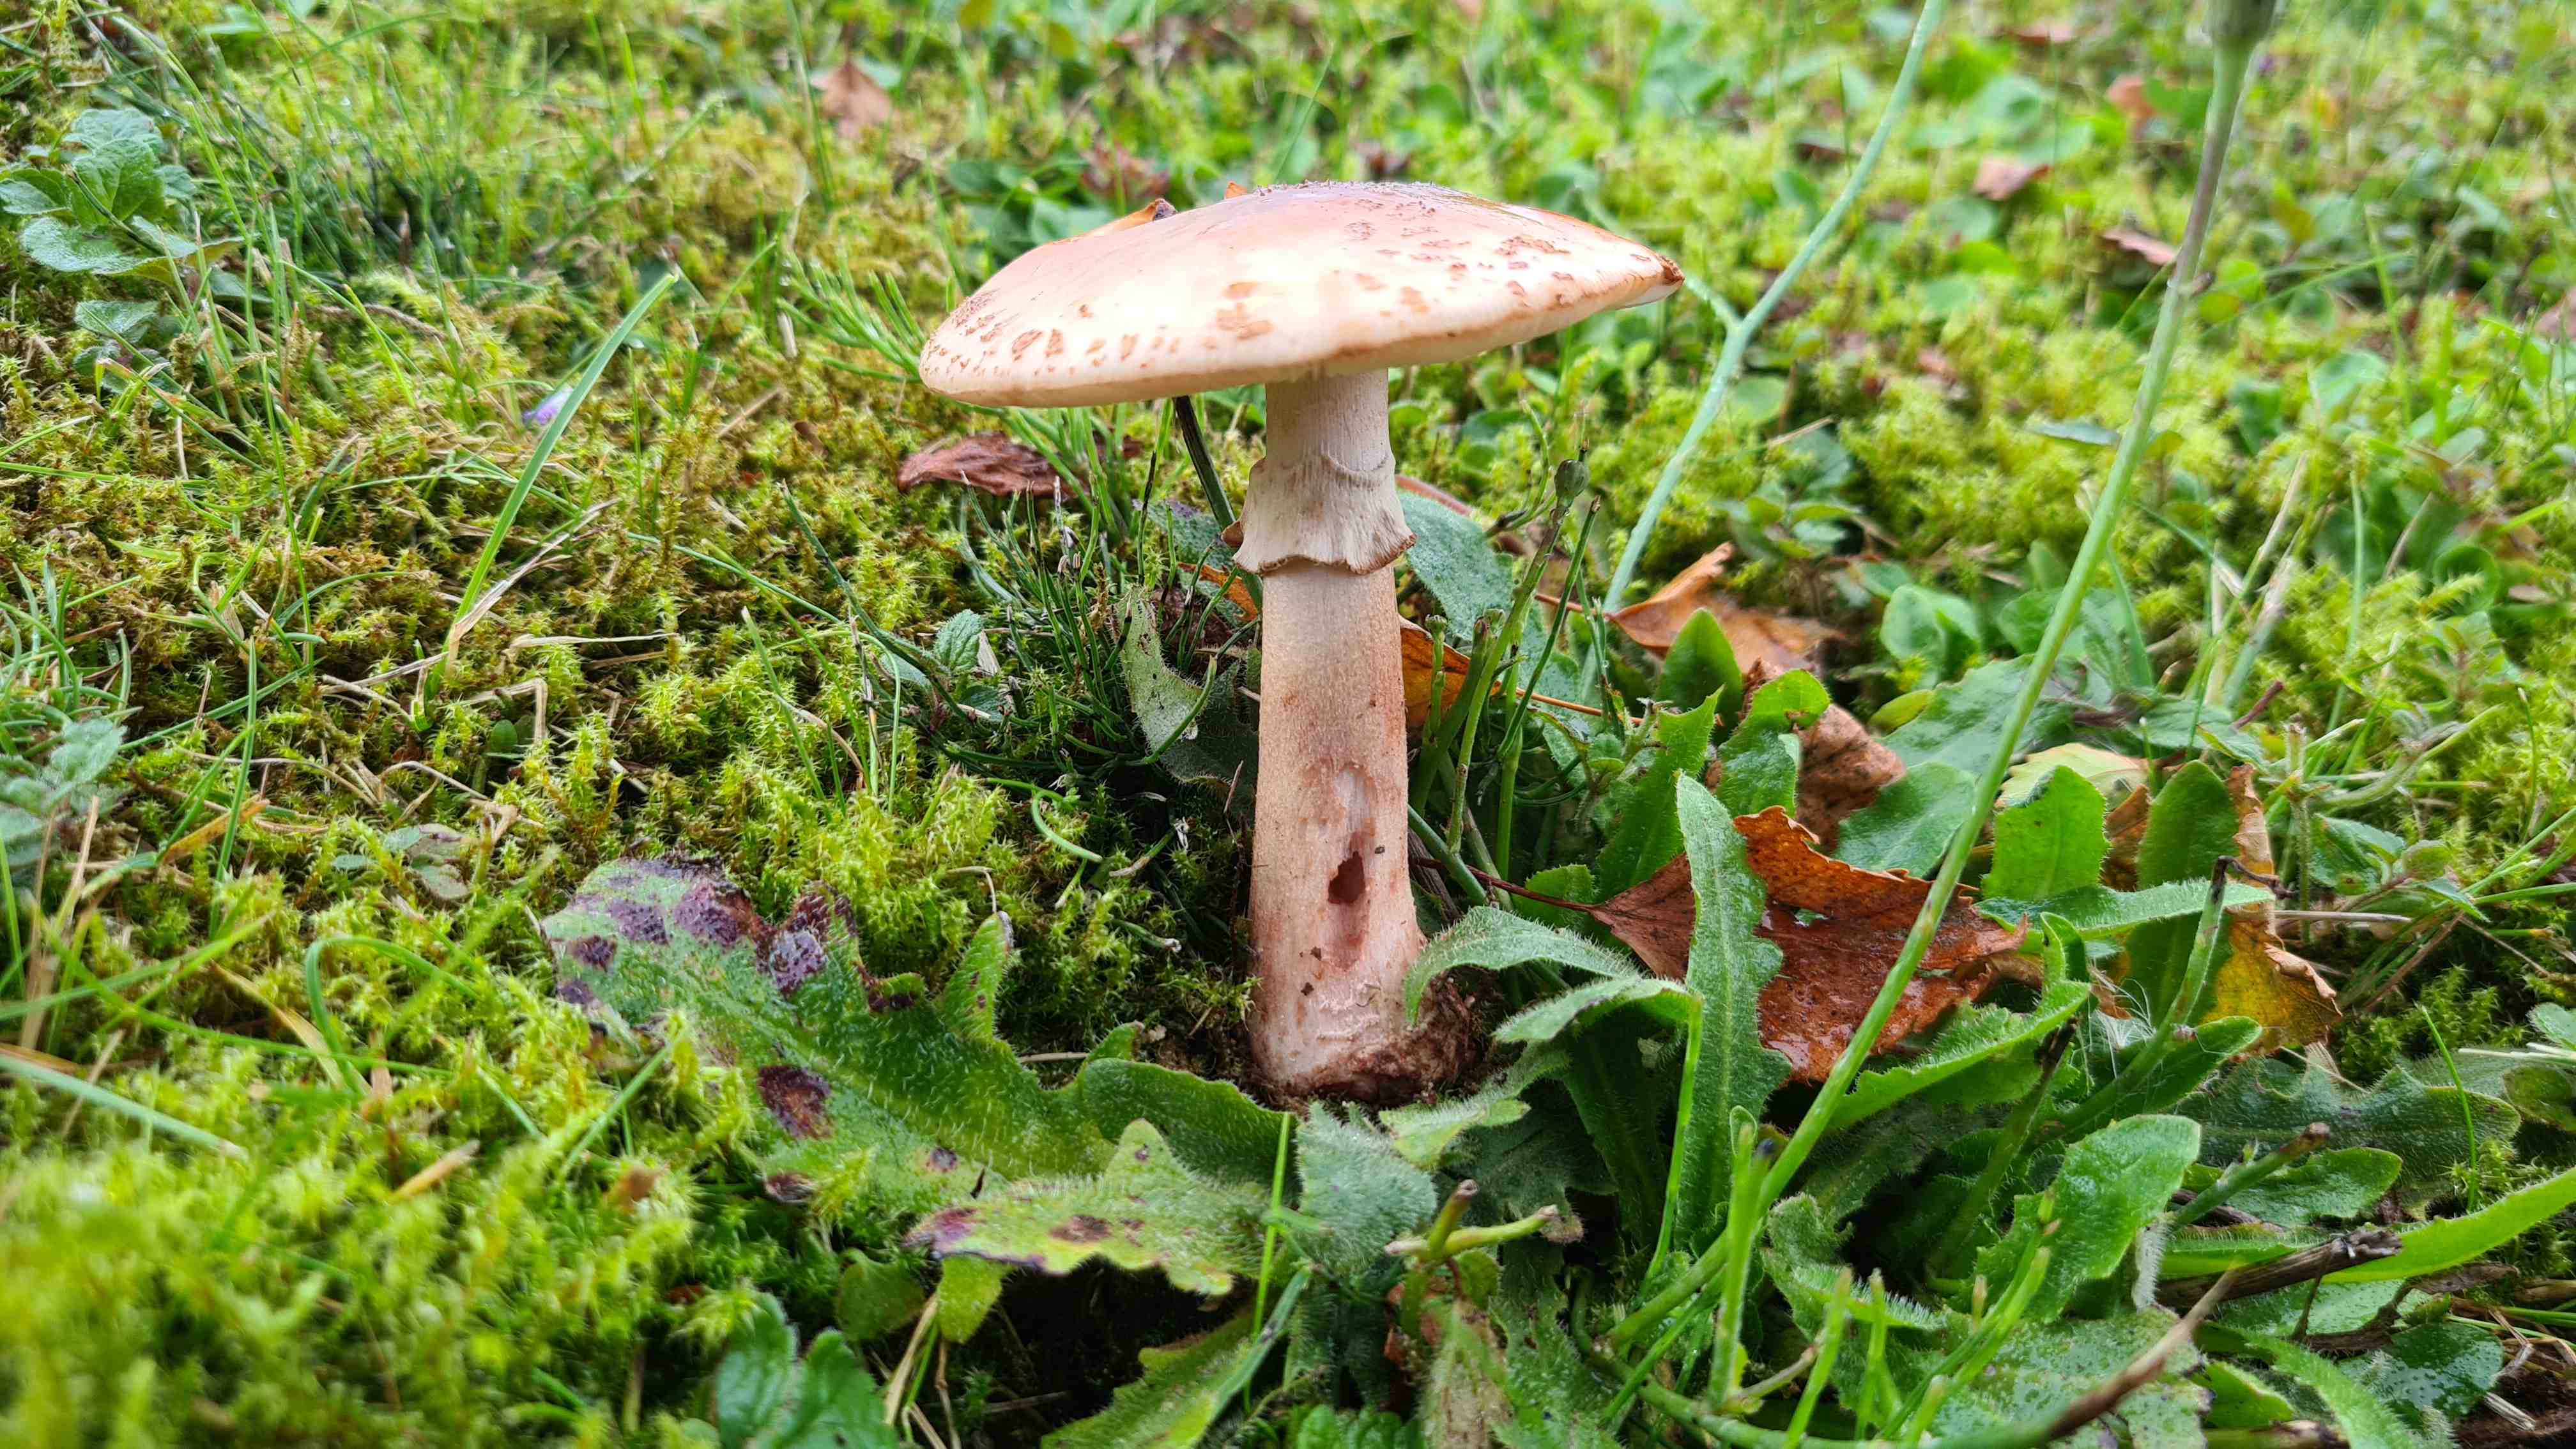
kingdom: Fungi
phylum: Basidiomycota
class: Agaricomycetes
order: Agaricales
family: Amanitaceae
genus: Amanita
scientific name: Amanita rubescens
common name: rødmende fluesvamp
